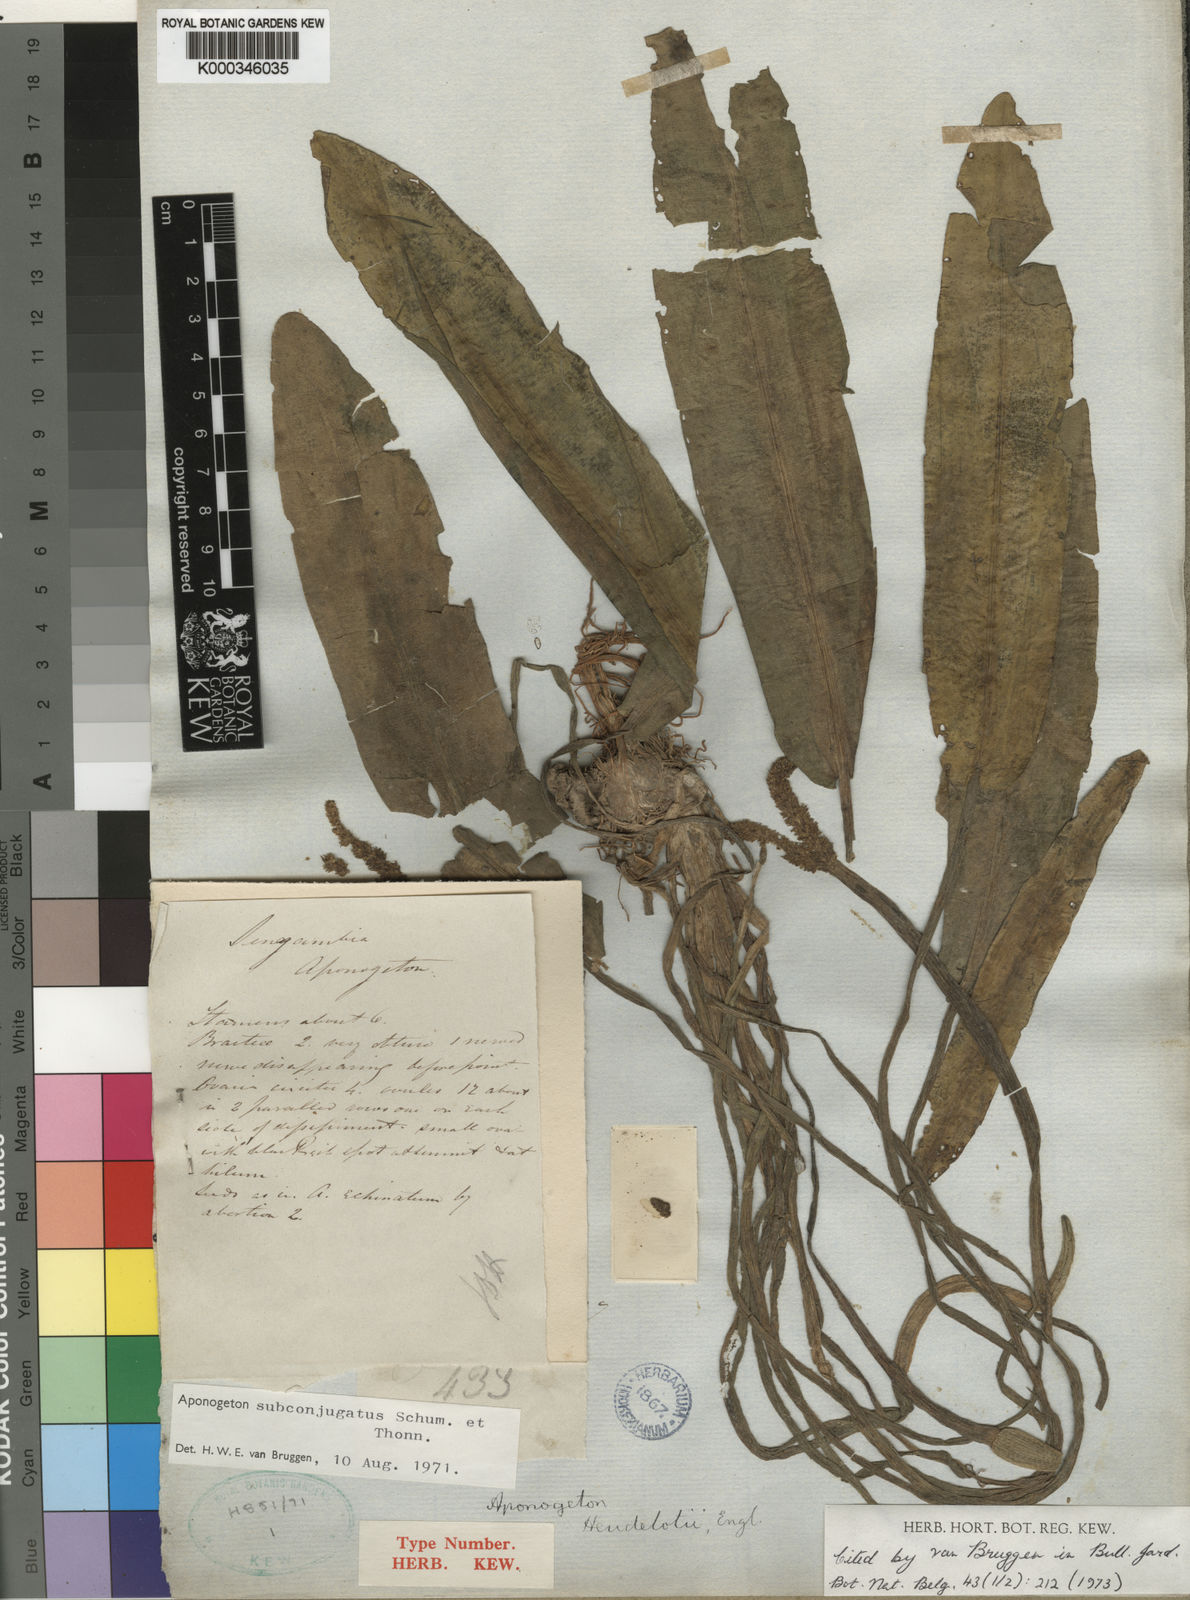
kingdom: Plantae
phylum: Tracheophyta
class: Liliopsida
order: Alismatales
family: Aponogetonaceae
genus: Aponogeton
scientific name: Aponogeton subconjugatus
